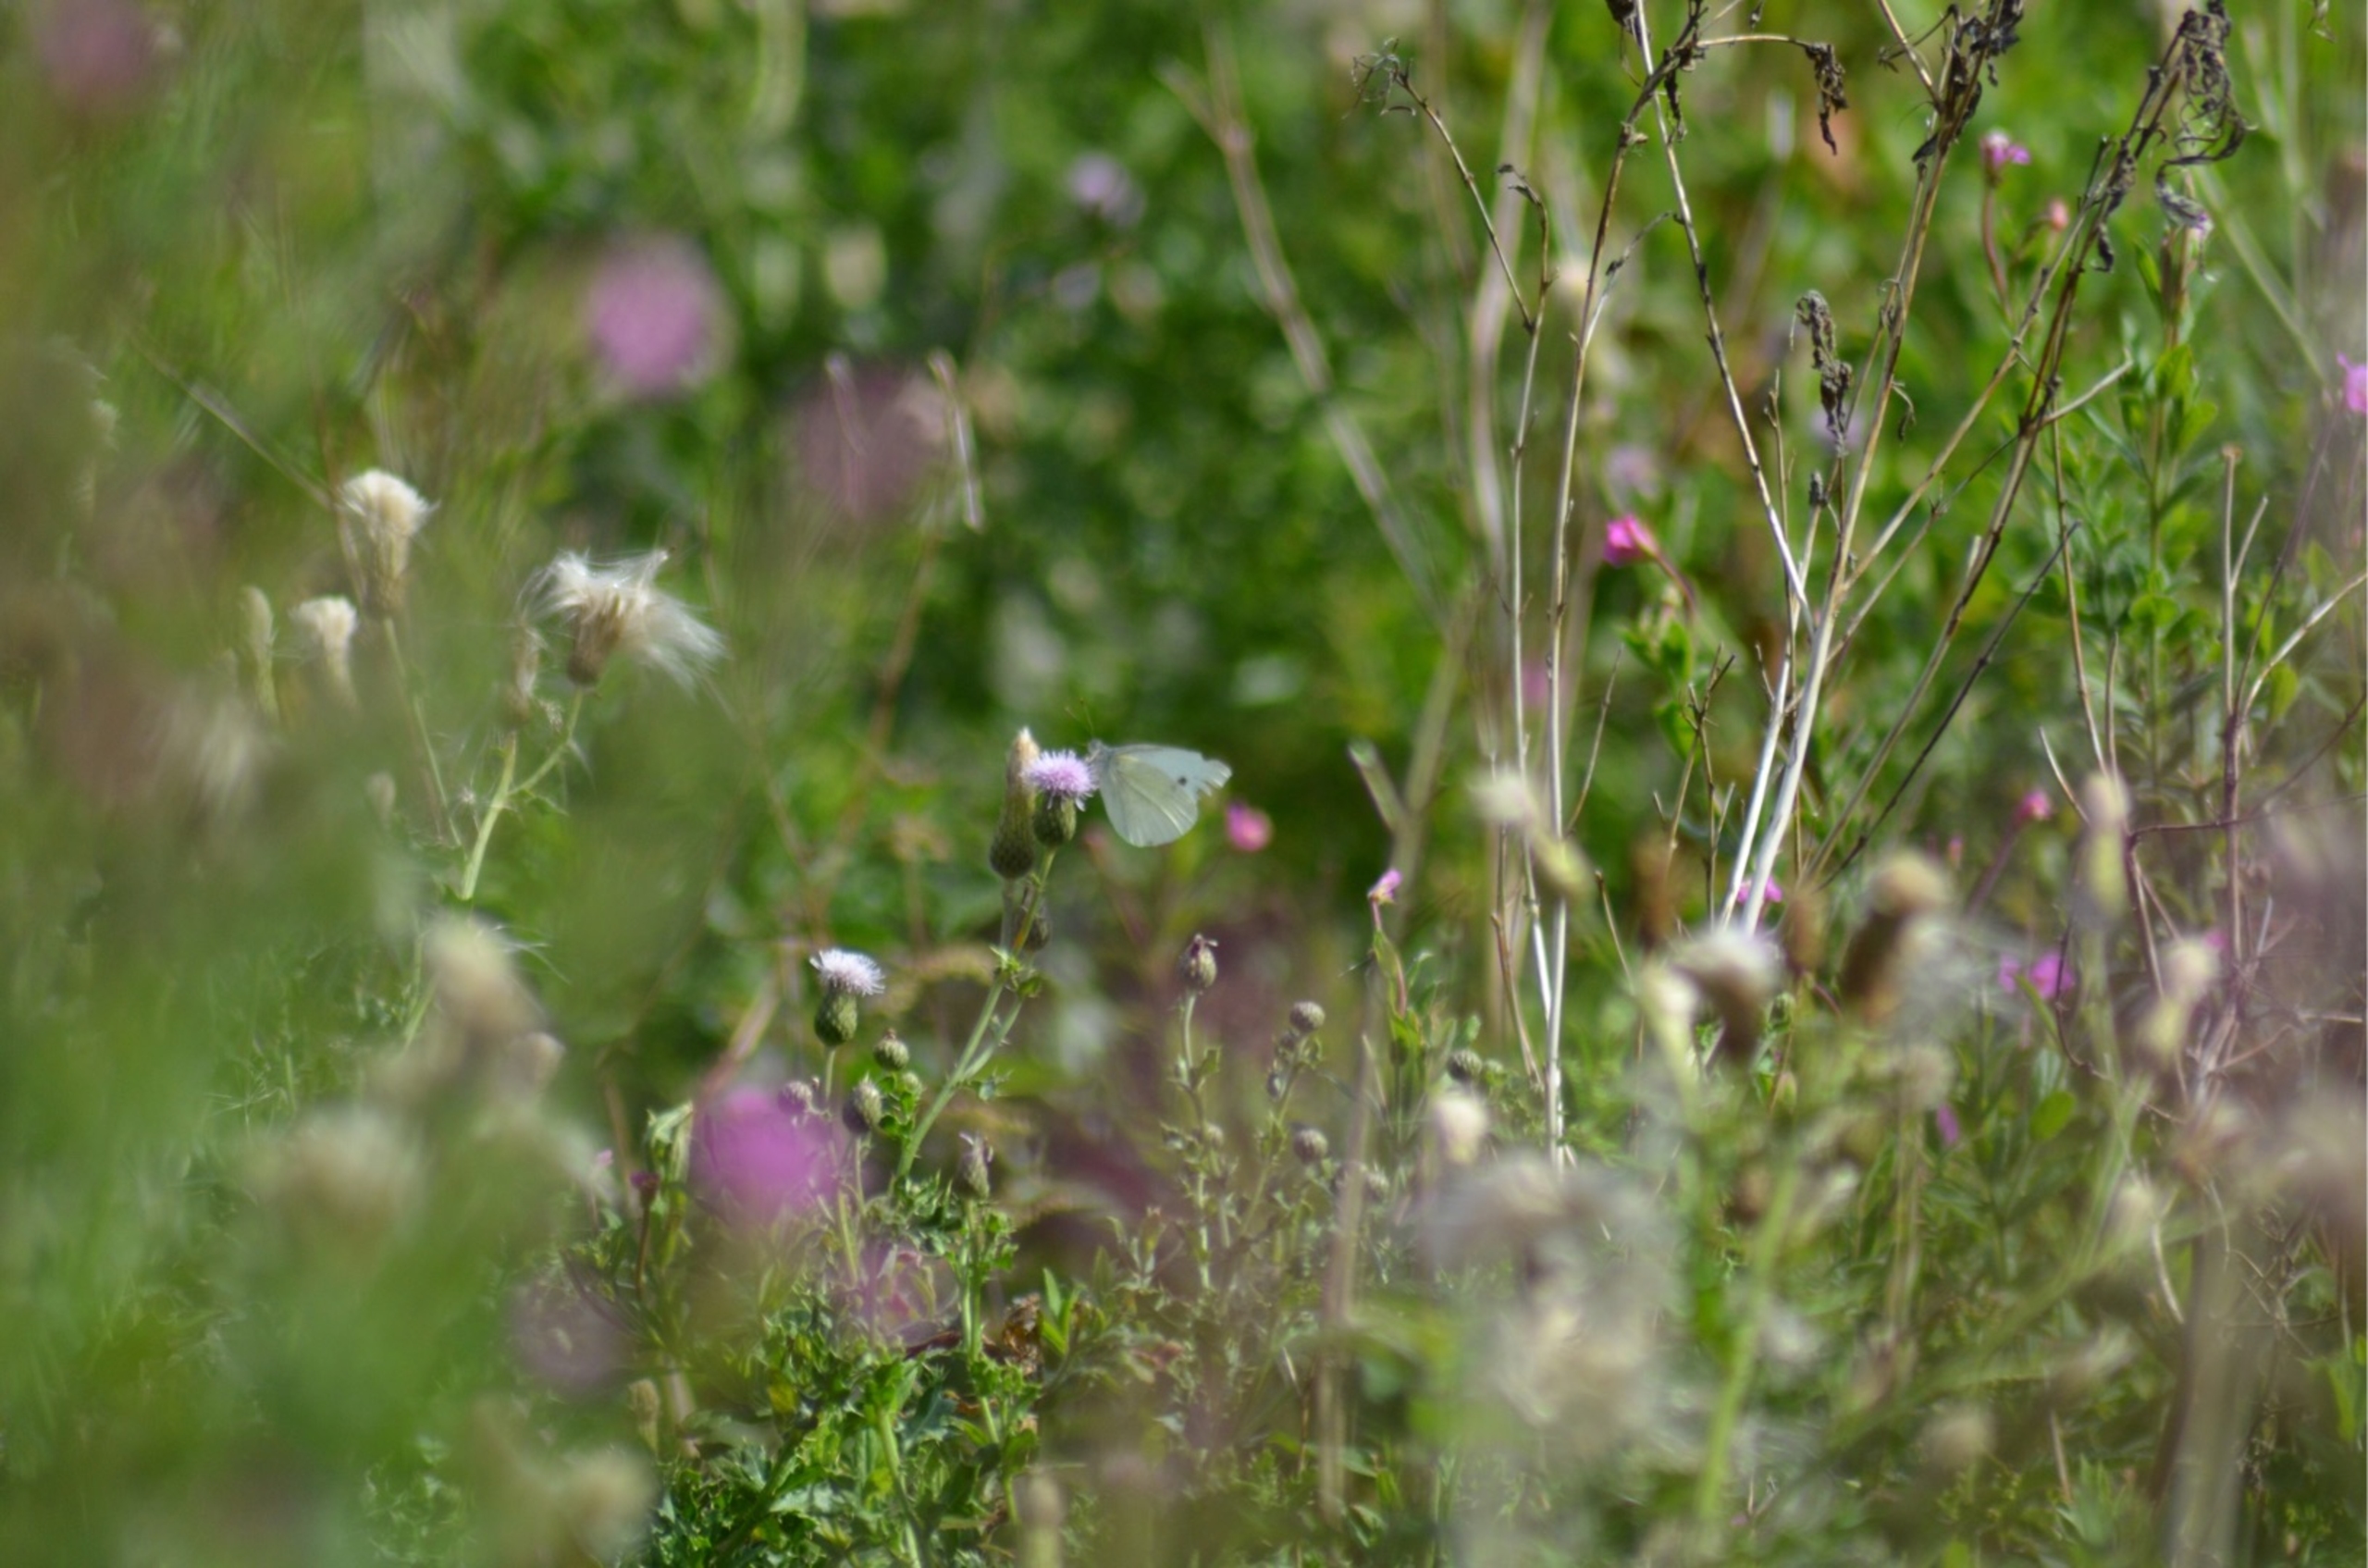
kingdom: Animalia
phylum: Arthropoda
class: Insecta
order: Lepidoptera
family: Pieridae
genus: Pieris
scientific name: Pieris rapae
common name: Lille kålsommerfugl
